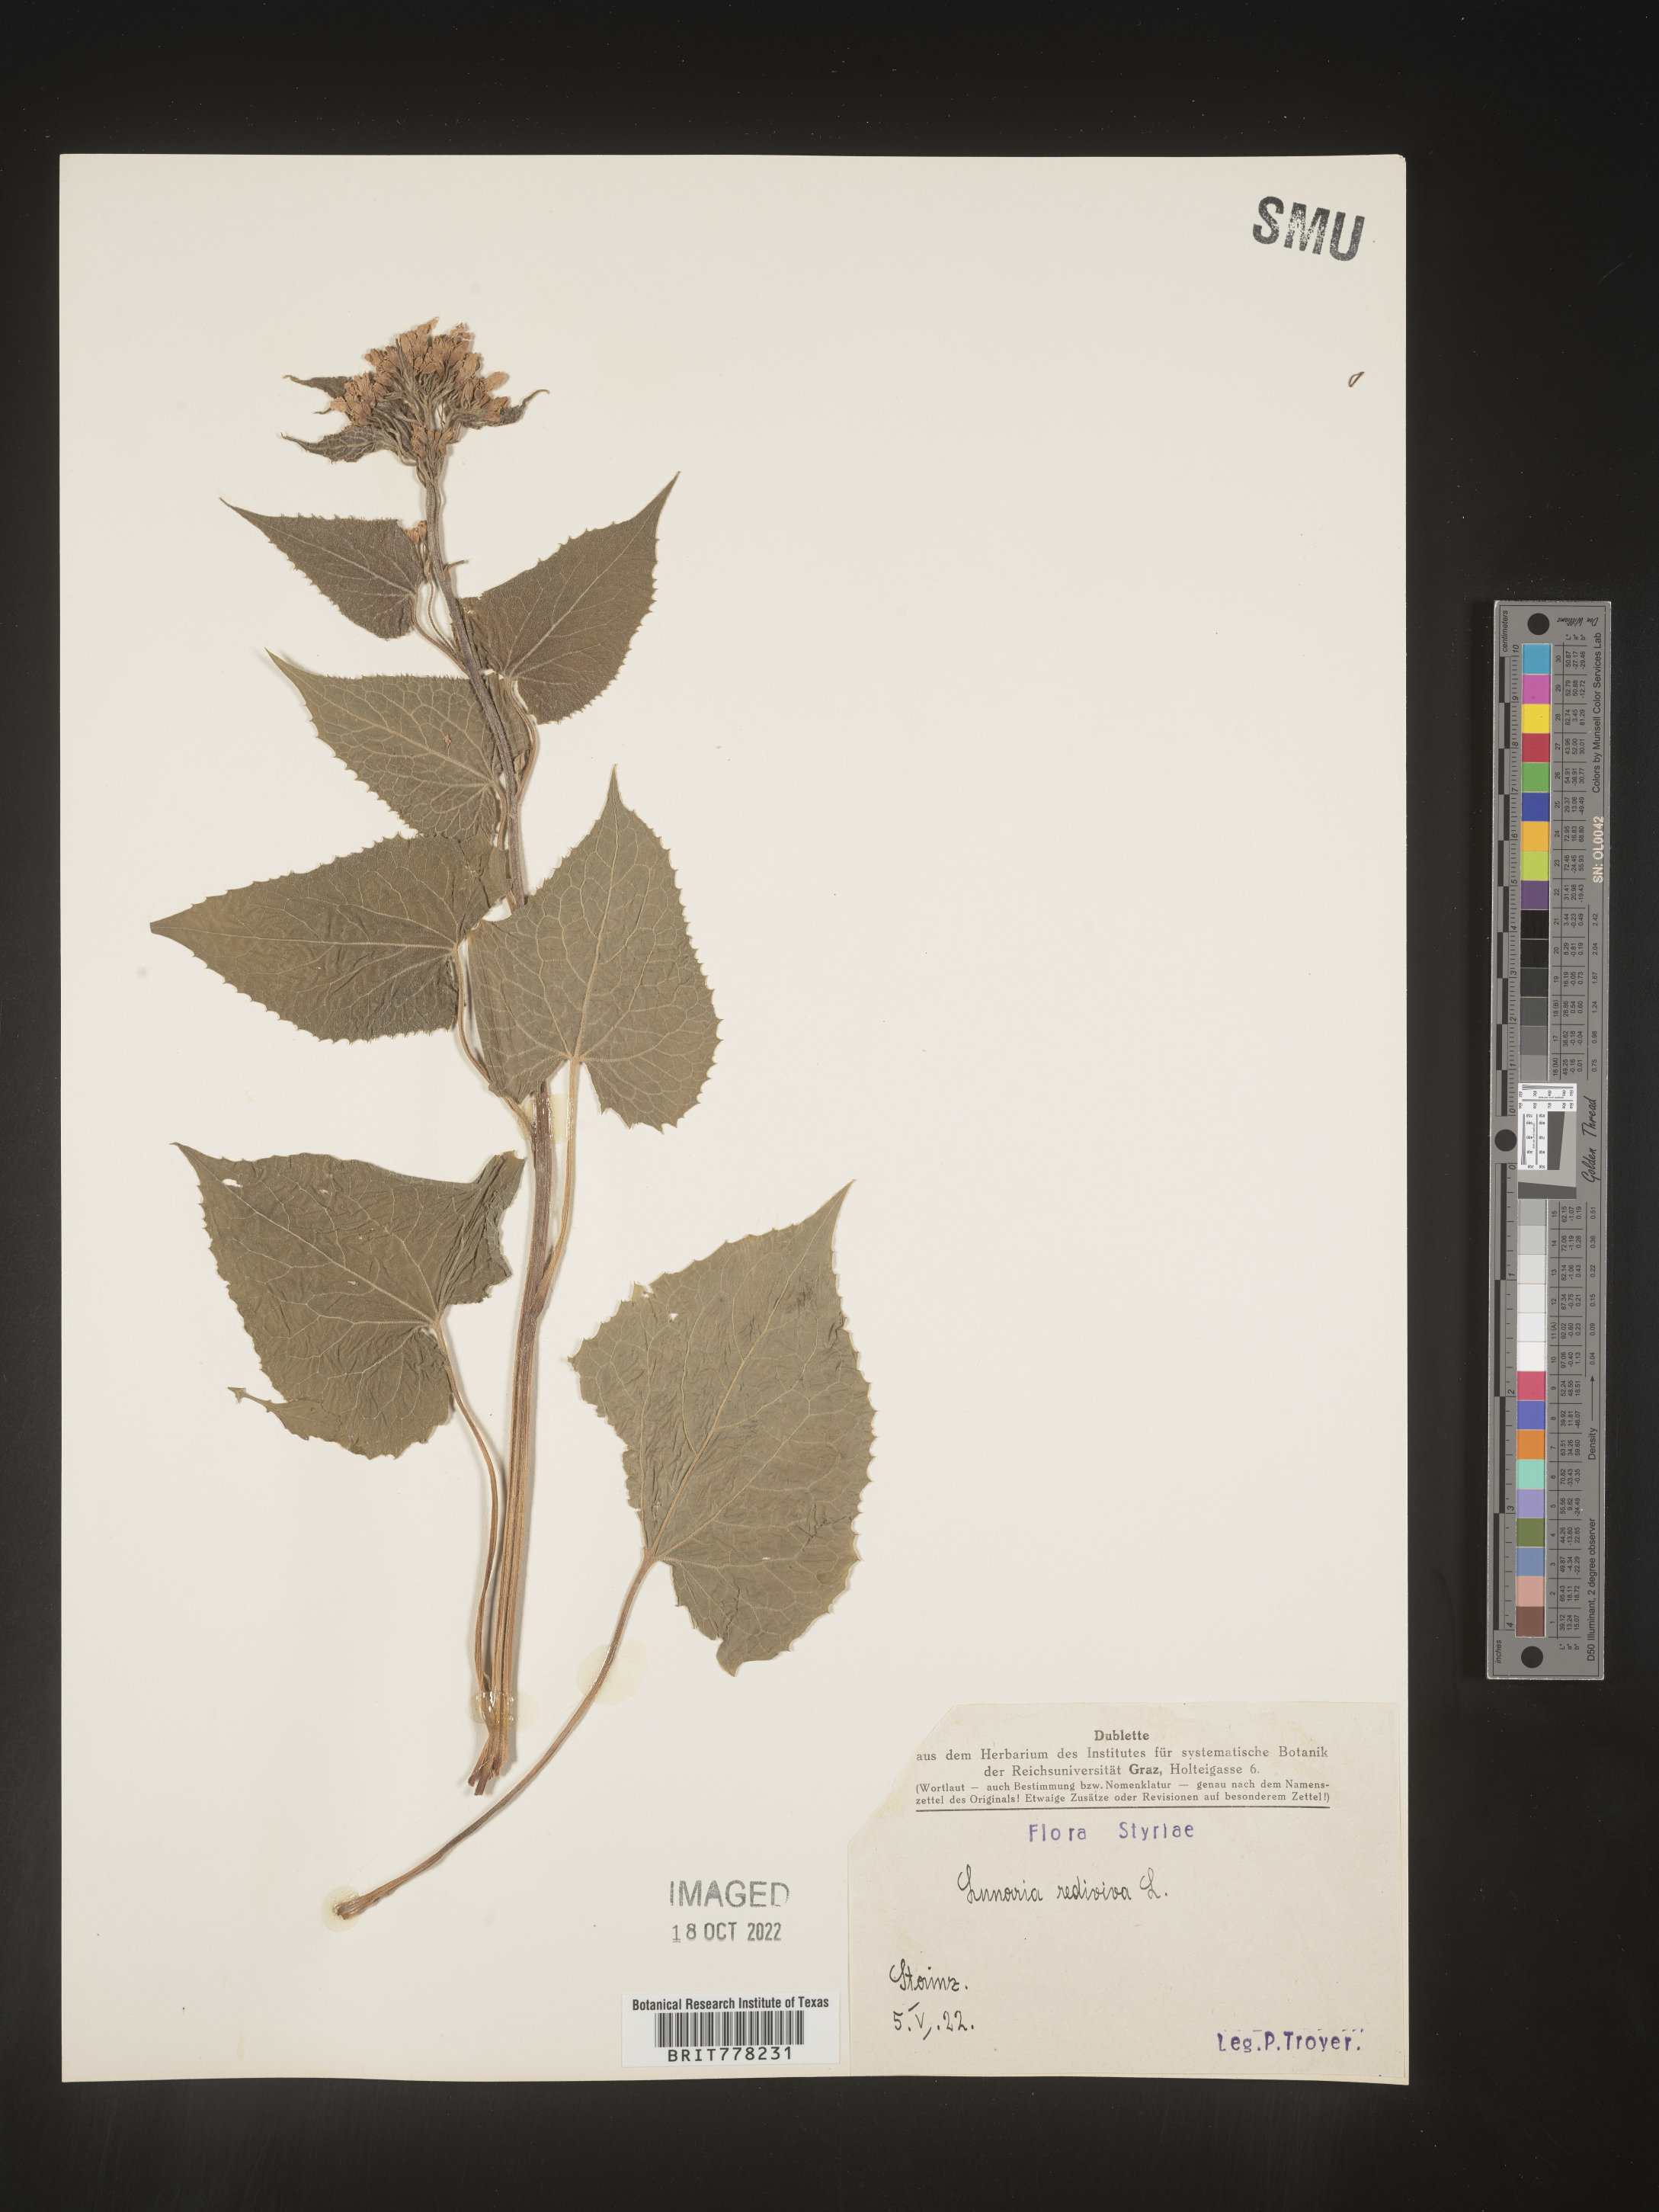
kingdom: Plantae
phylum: Tracheophyta
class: Magnoliopsida
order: Brassicales
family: Brassicaceae
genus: Lunaria
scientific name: Lunaria
